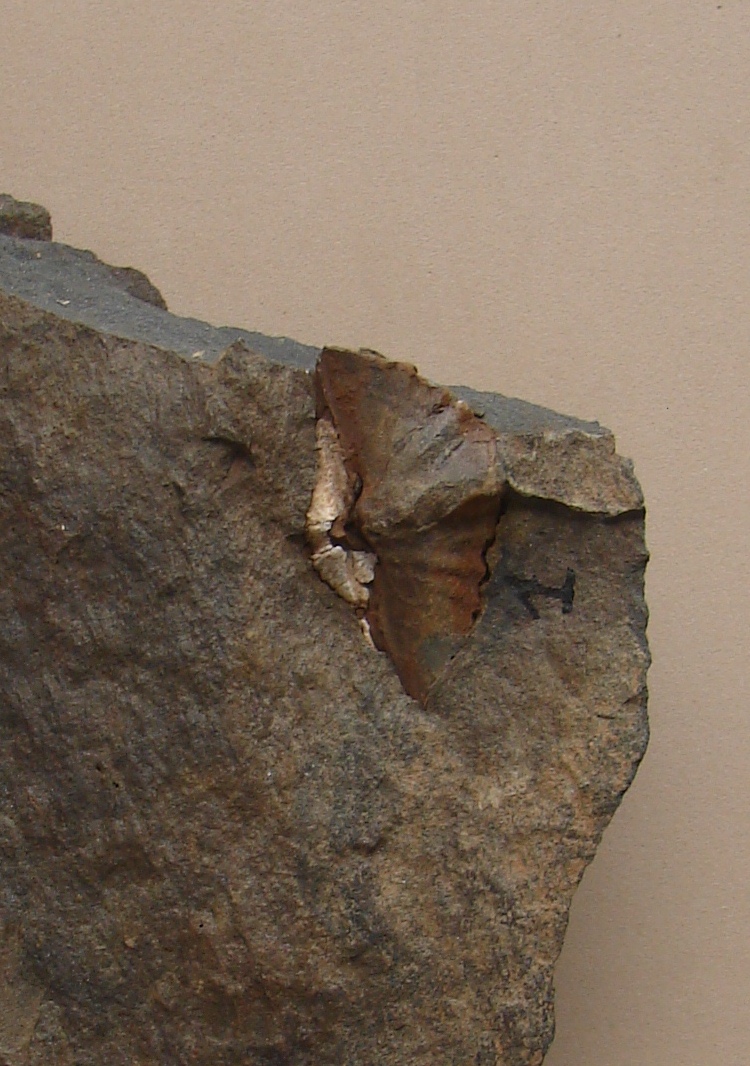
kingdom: Animalia
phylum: Brachiopoda
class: Rhynchonellata
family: Hysterolitidae
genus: Arduspirifer
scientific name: Arduspirifer Spirifer arduennensis
